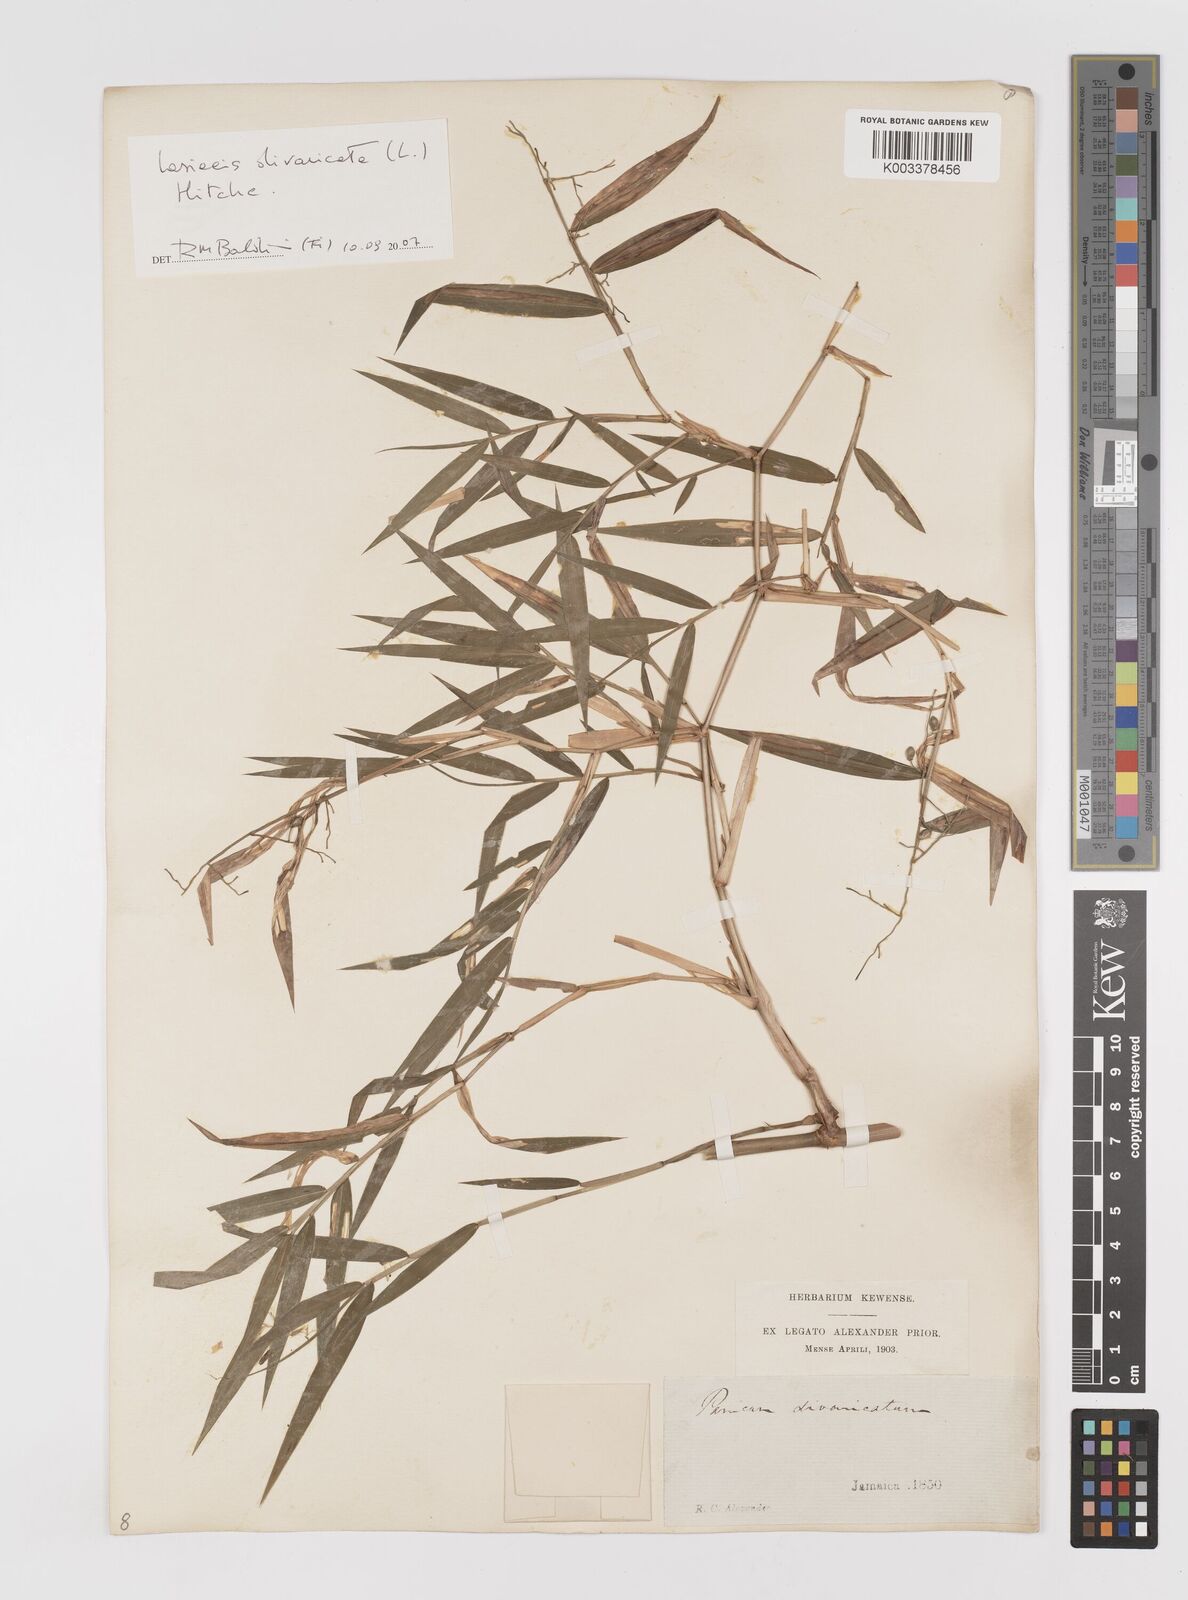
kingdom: Plantae
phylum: Tracheophyta
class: Liliopsida
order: Poales
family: Poaceae
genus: Lasiacis
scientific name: Lasiacis divaricata
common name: Smallcane
